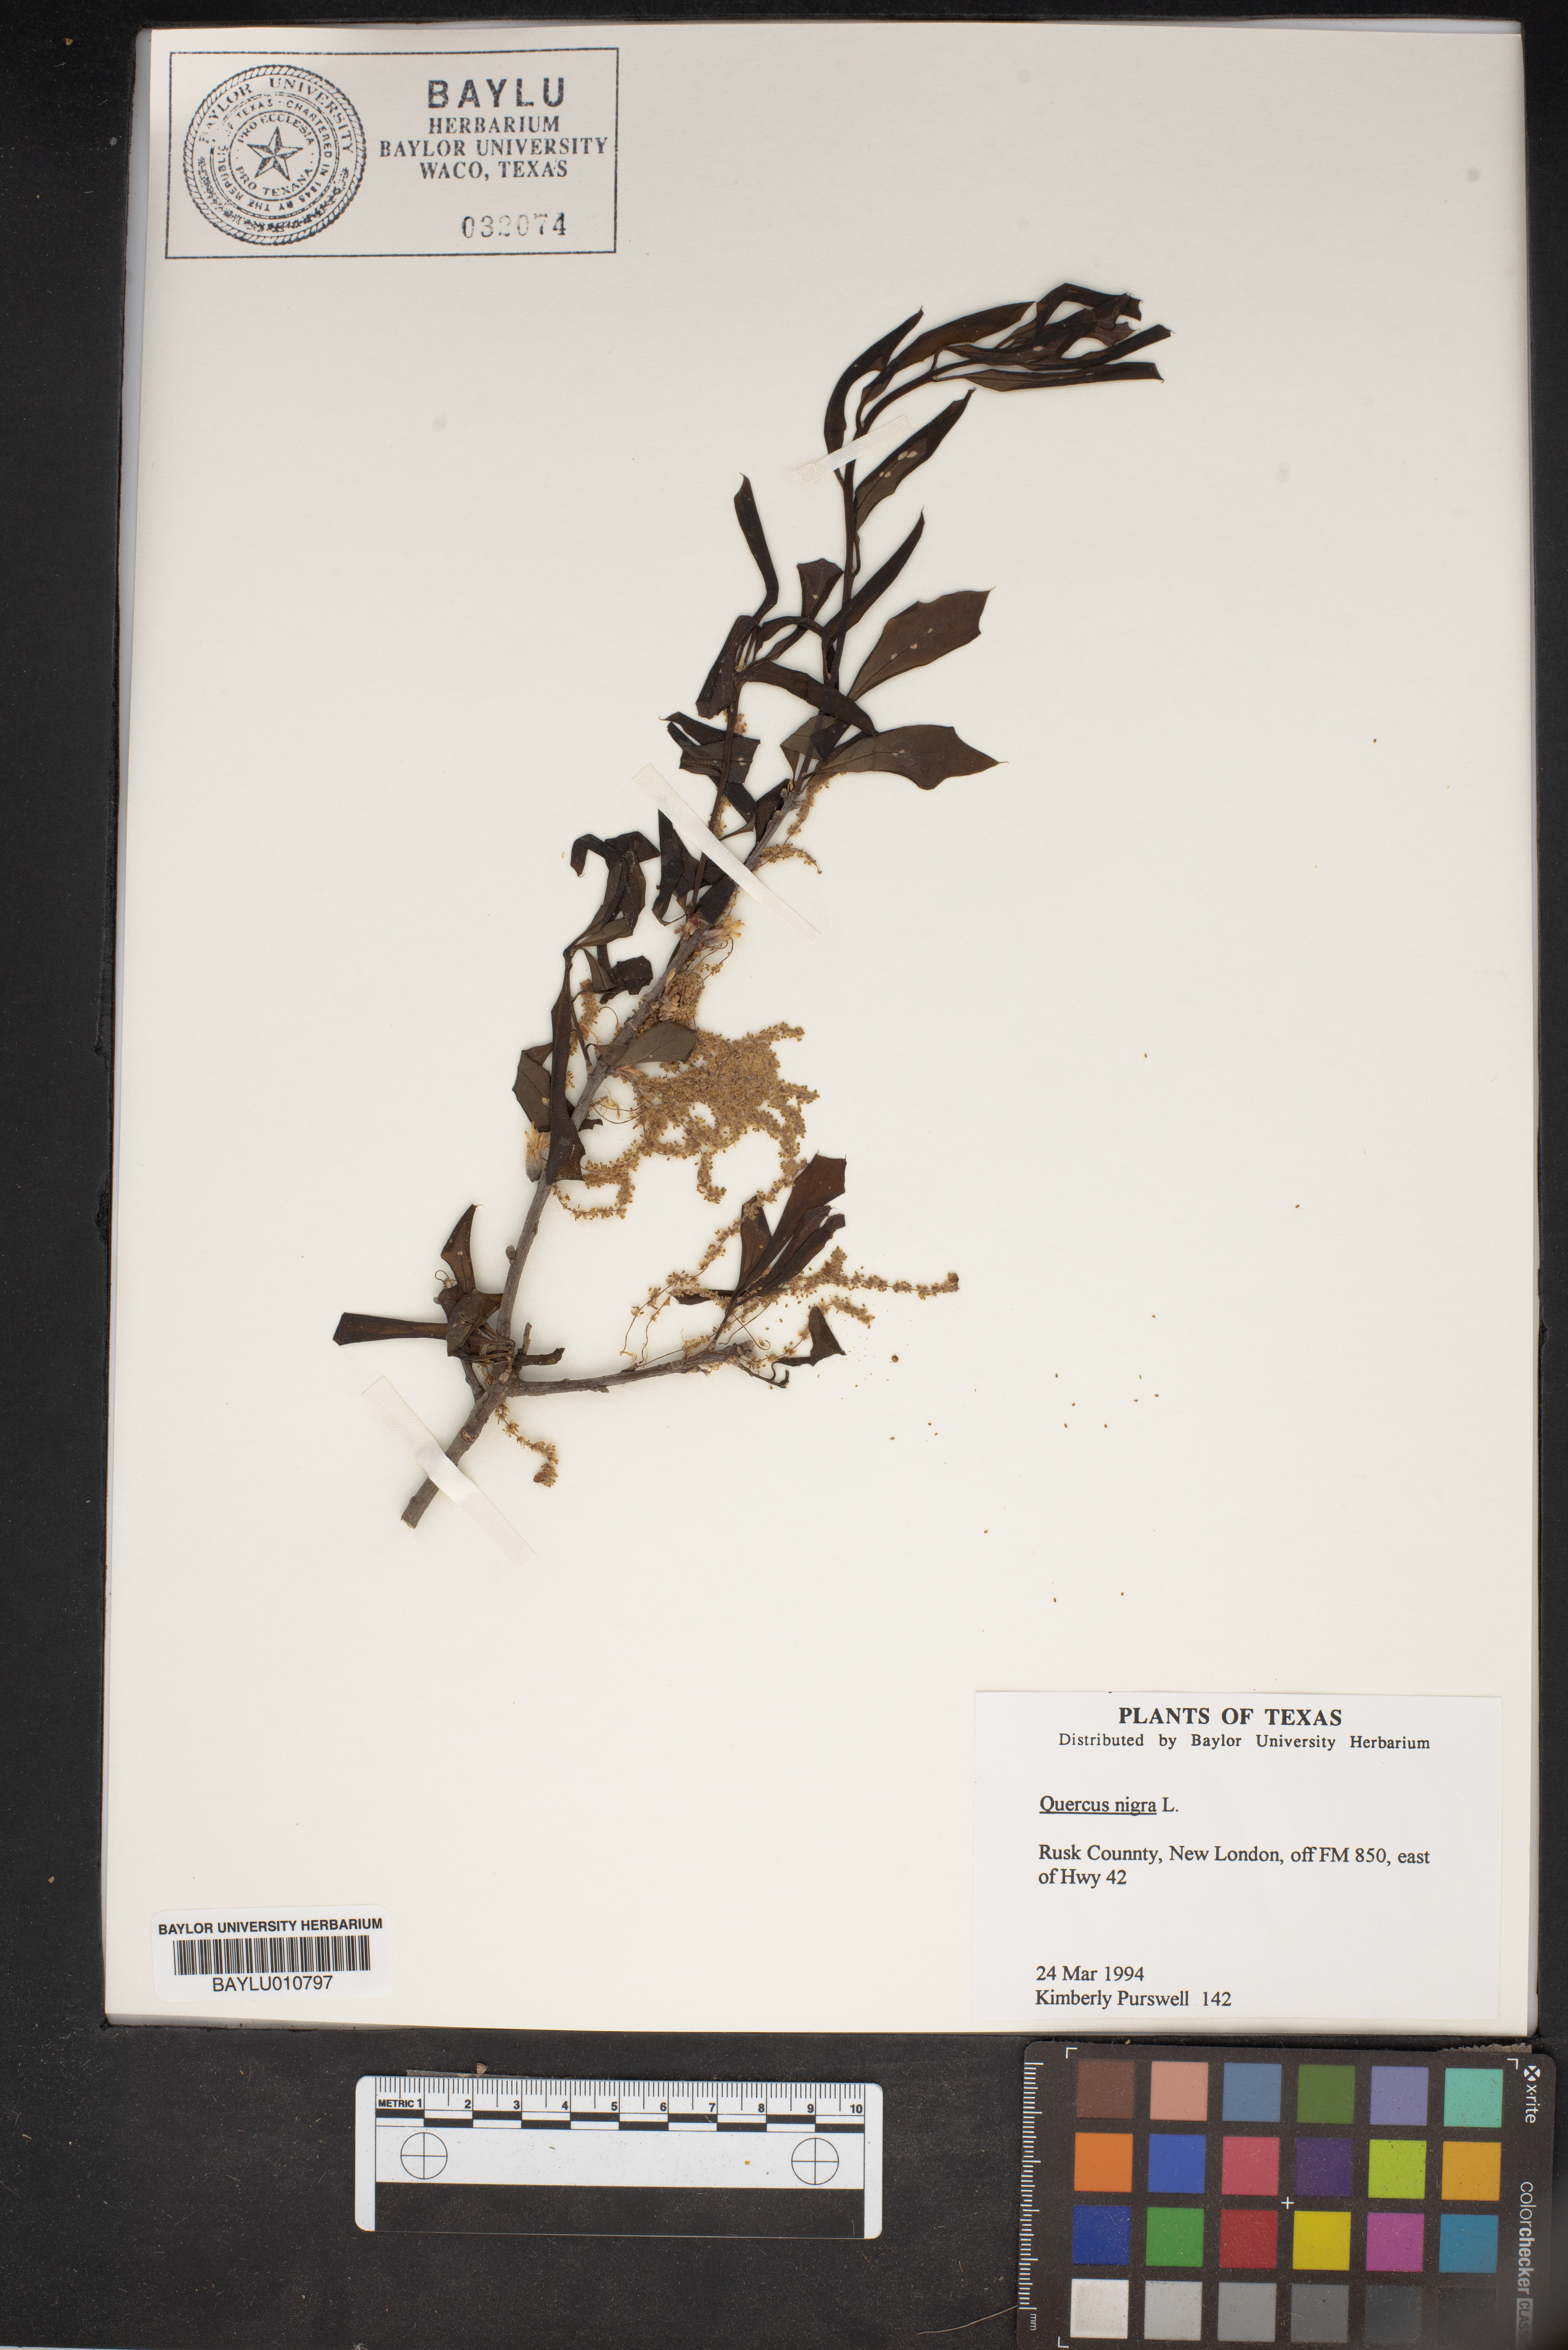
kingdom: Plantae
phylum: Tracheophyta
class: Magnoliopsida
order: Fagales
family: Fagaceae
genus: Quercus
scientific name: Quercus nigra
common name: Water oak
